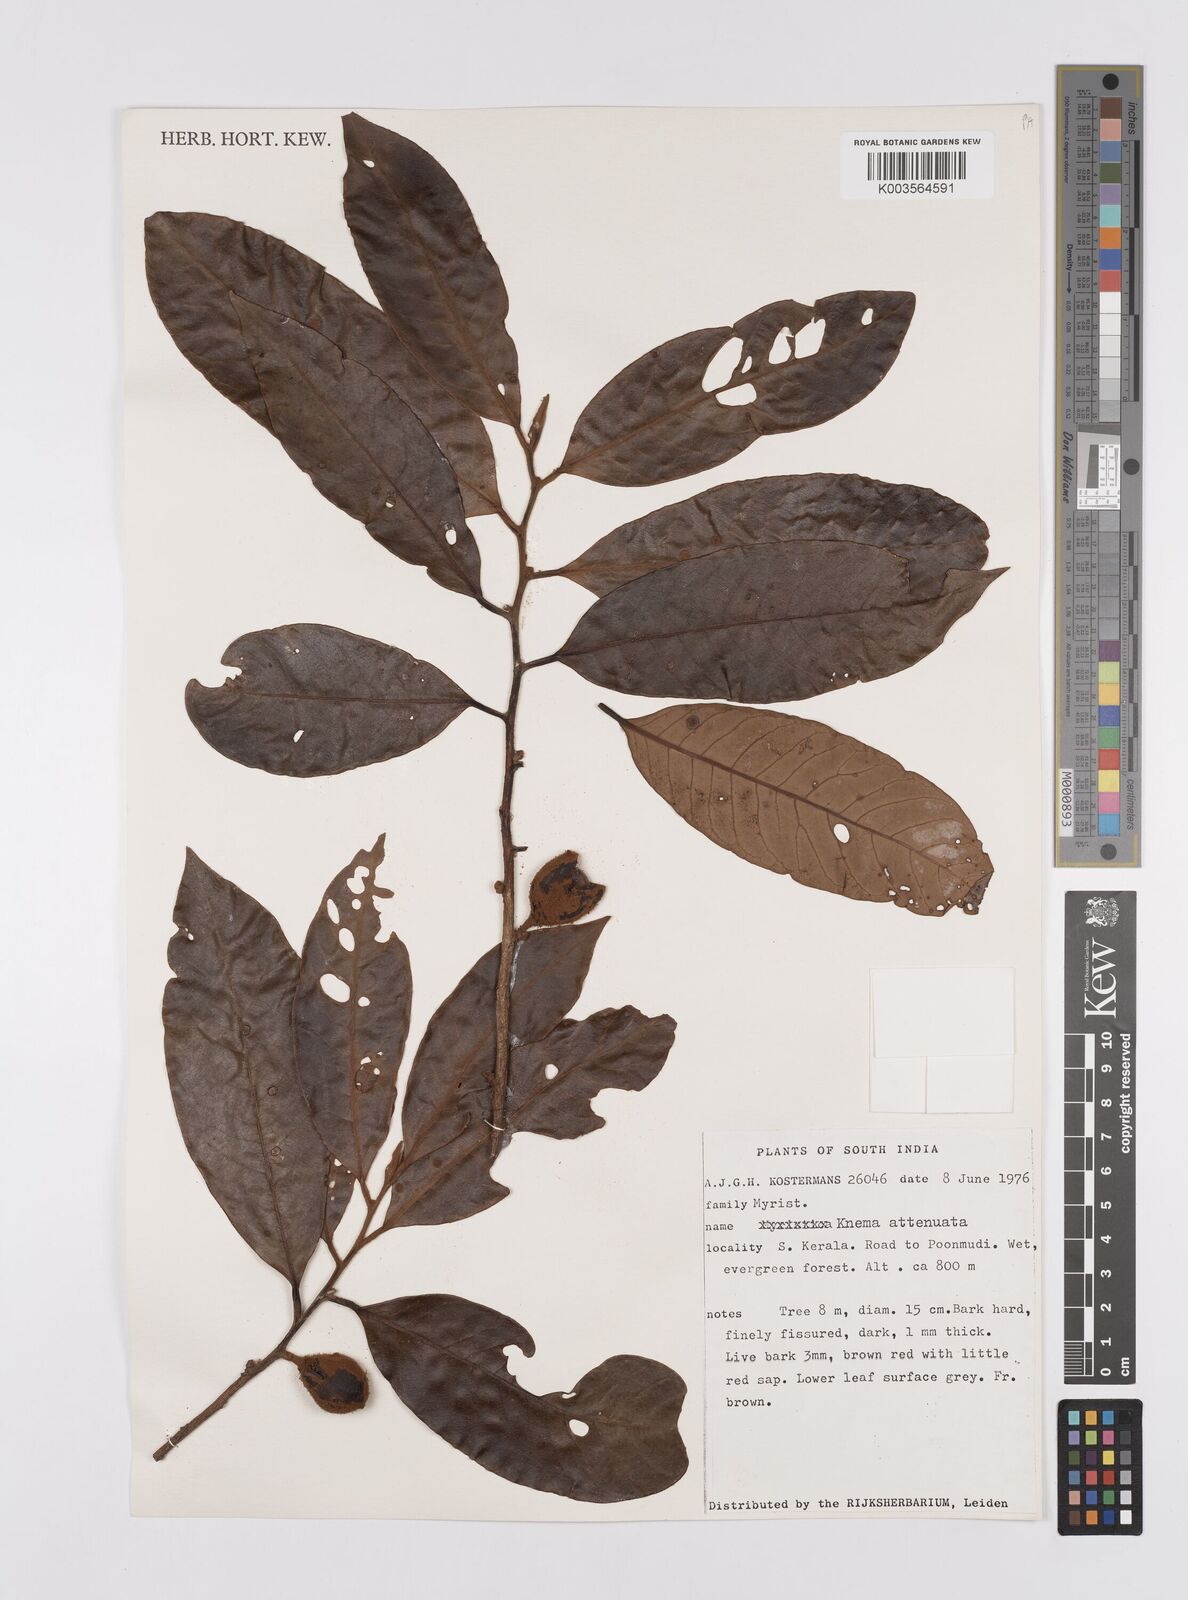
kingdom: Plantae
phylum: Tracheophyta
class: Magnoliopsida
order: Magnoliales
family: Myristicaceae
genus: Knema
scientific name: Knema attenuata
